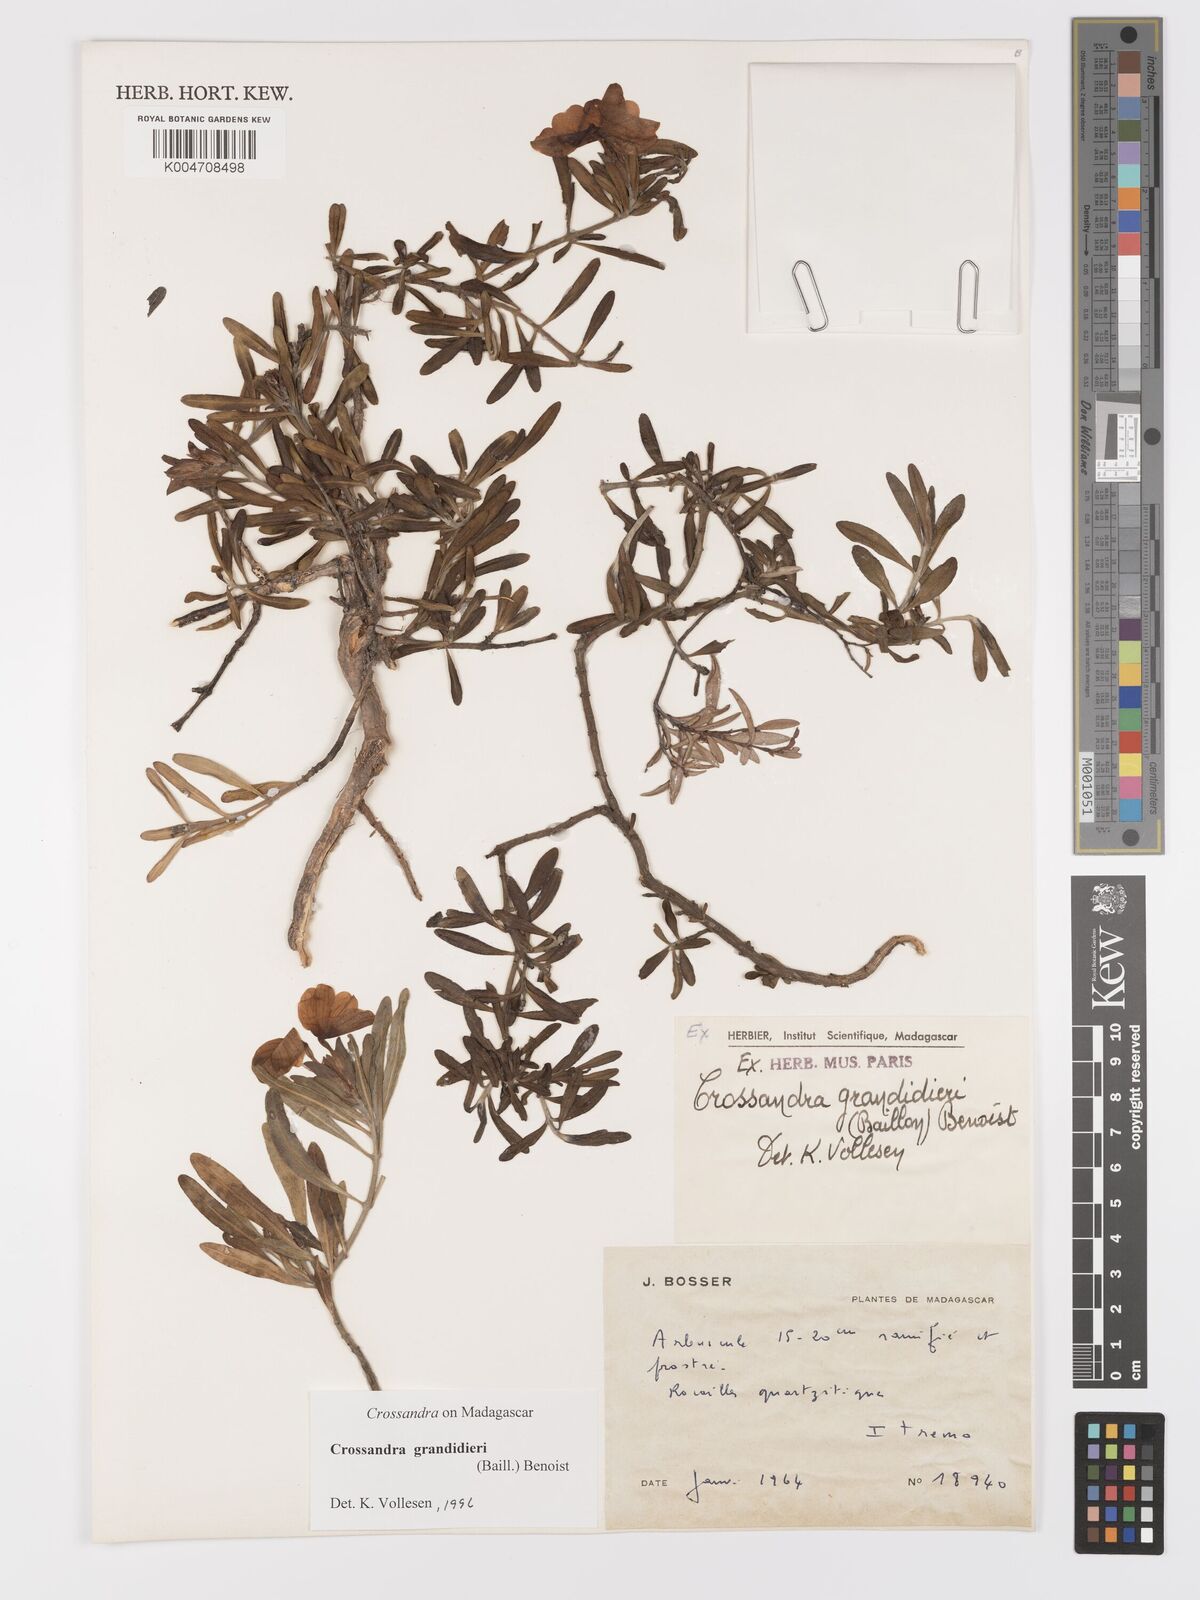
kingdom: Plantae
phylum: Tracheophyta
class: Magnoliopsida
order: Lamiales
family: Acanthaceae
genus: Crossandra
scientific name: Crossandra grandidieri
